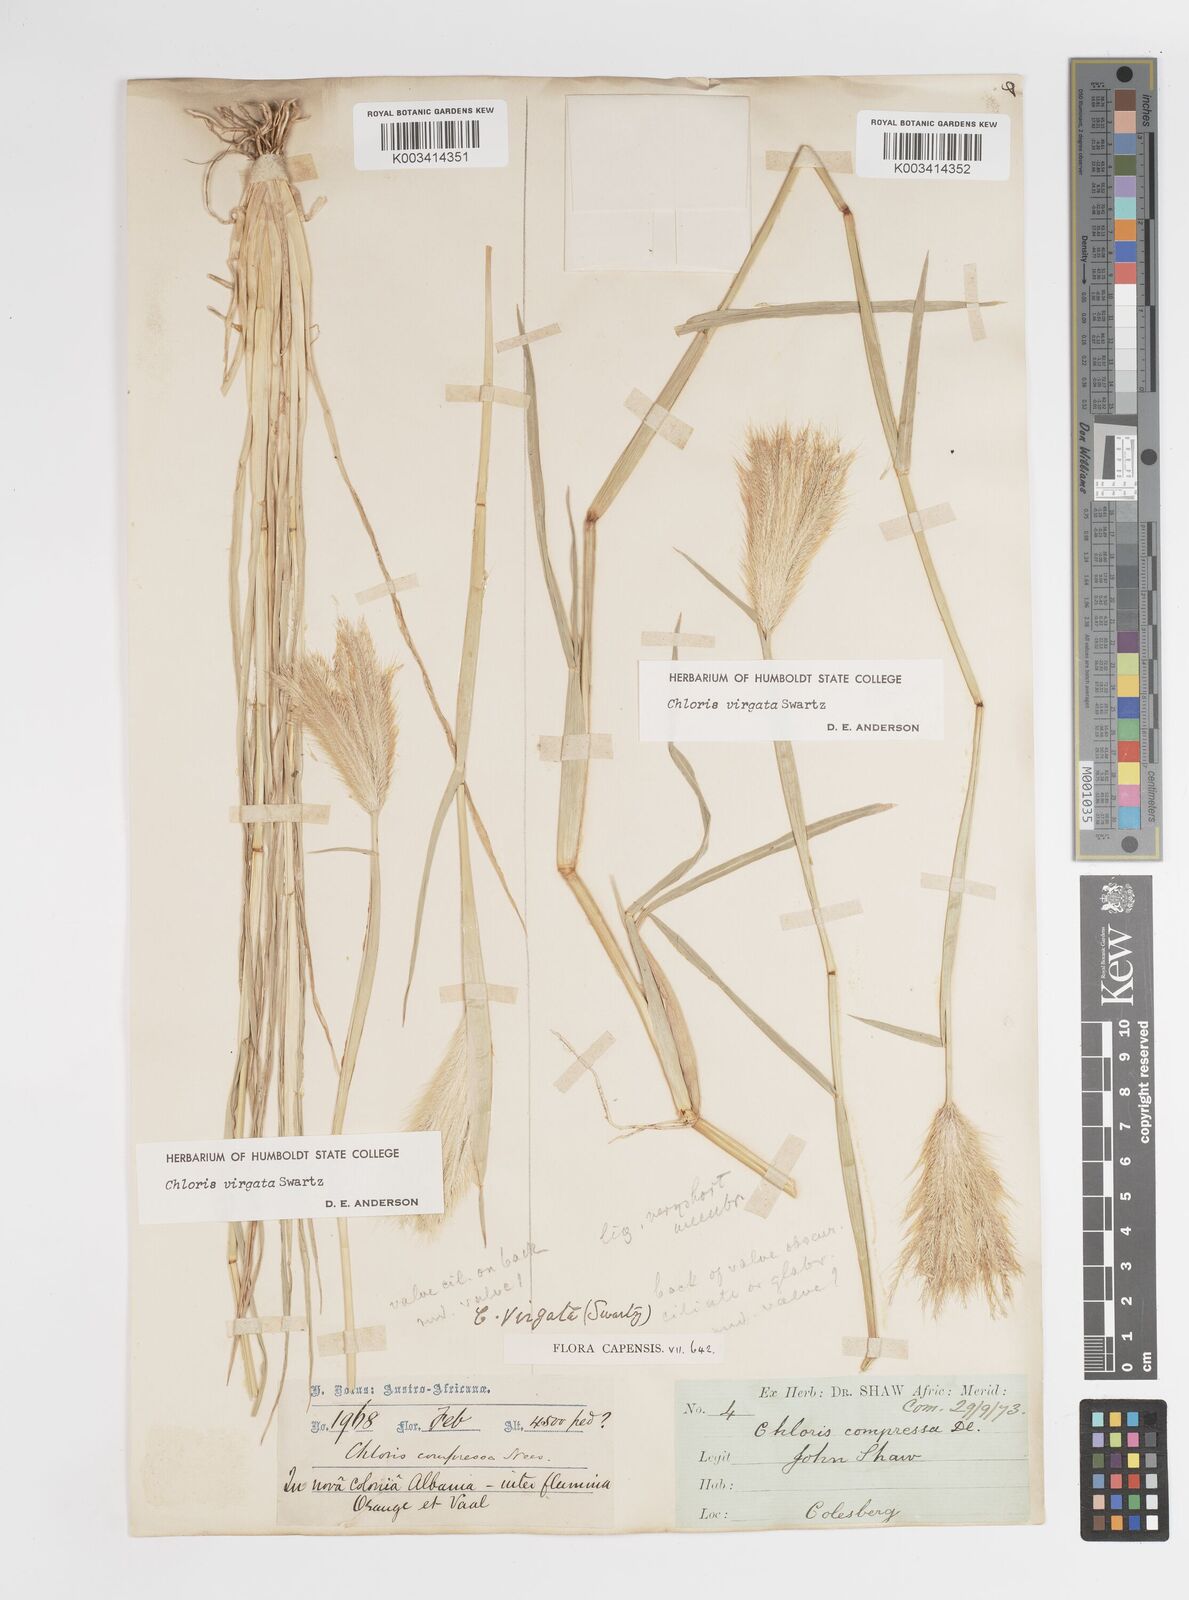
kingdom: Plantae
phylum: Tracheophyta
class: Liliopsida
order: Poales
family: Poaceae
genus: Chloris
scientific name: Chloris virgata
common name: Feathery rhodes-grass
